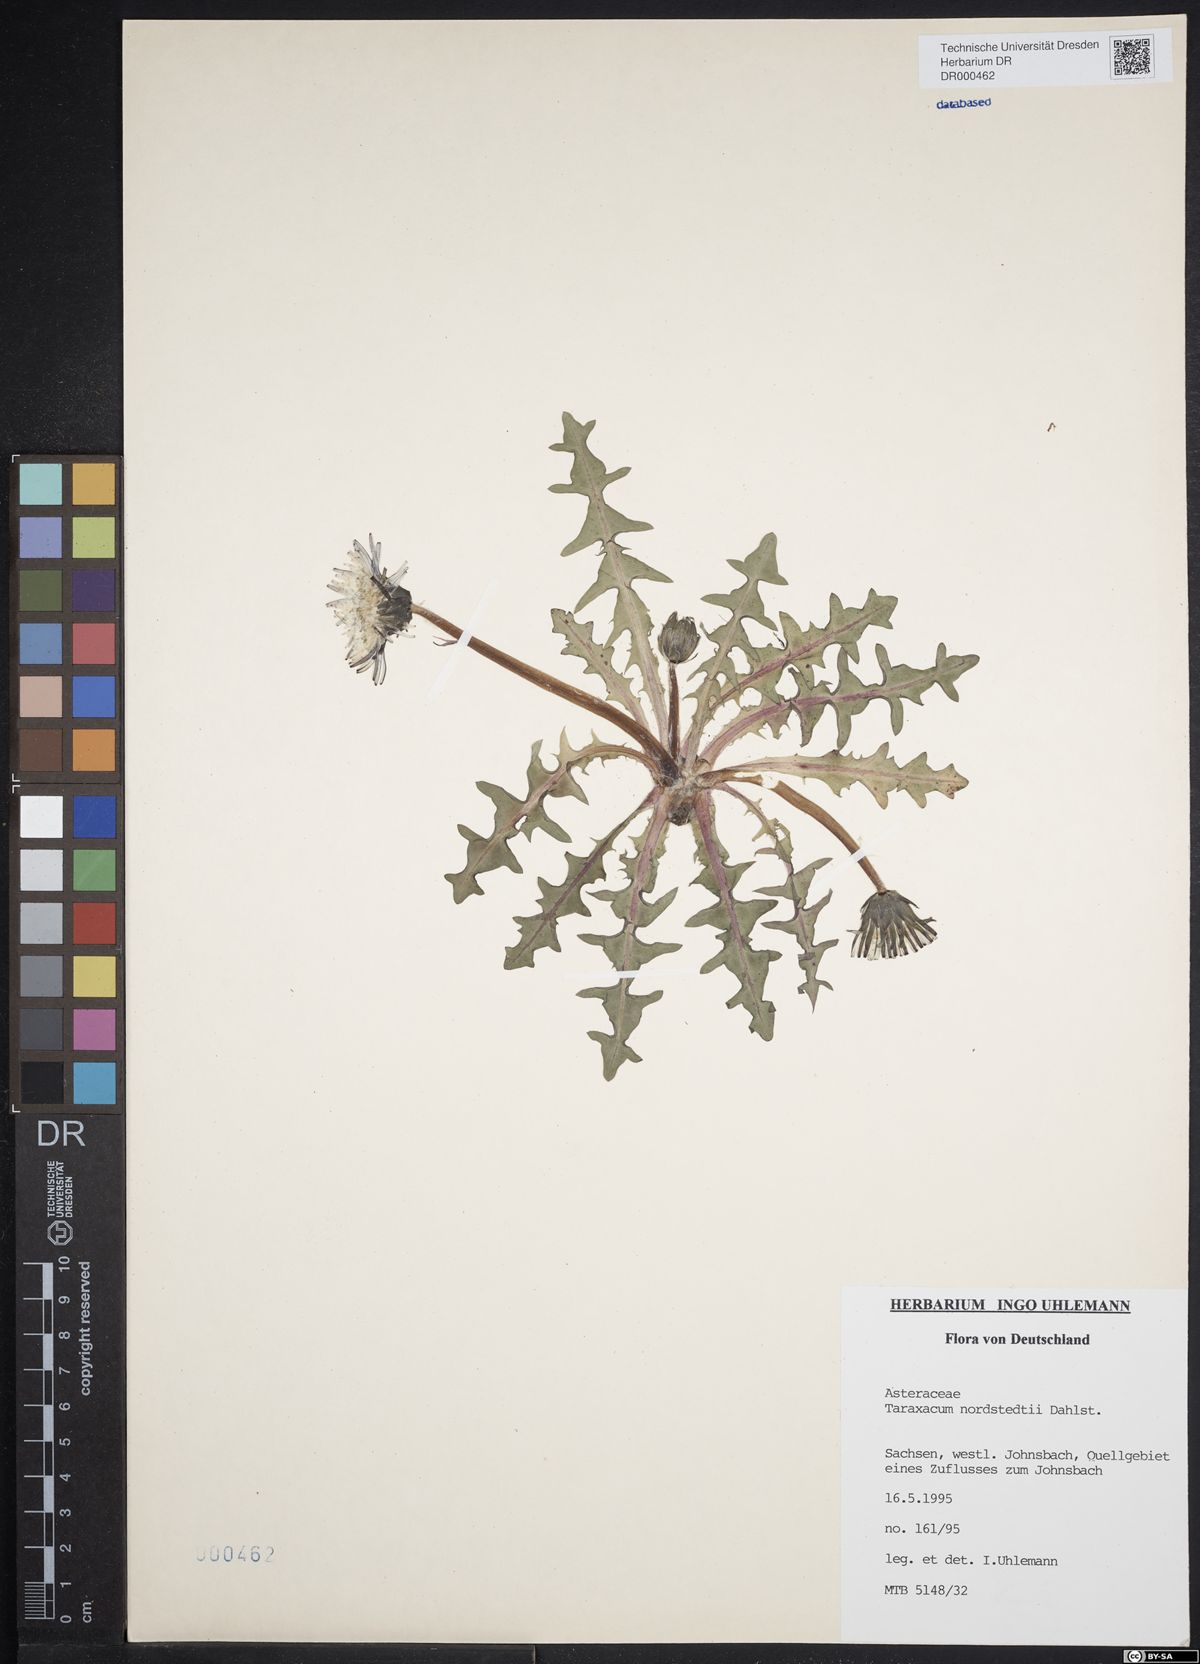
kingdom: Plantae
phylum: Tracheophyta
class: Magnoliopsida
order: Asterales
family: Asteraceae
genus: Taraxacum
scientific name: Taraxacum nordstedtii
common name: Nordstedt's dandelion
